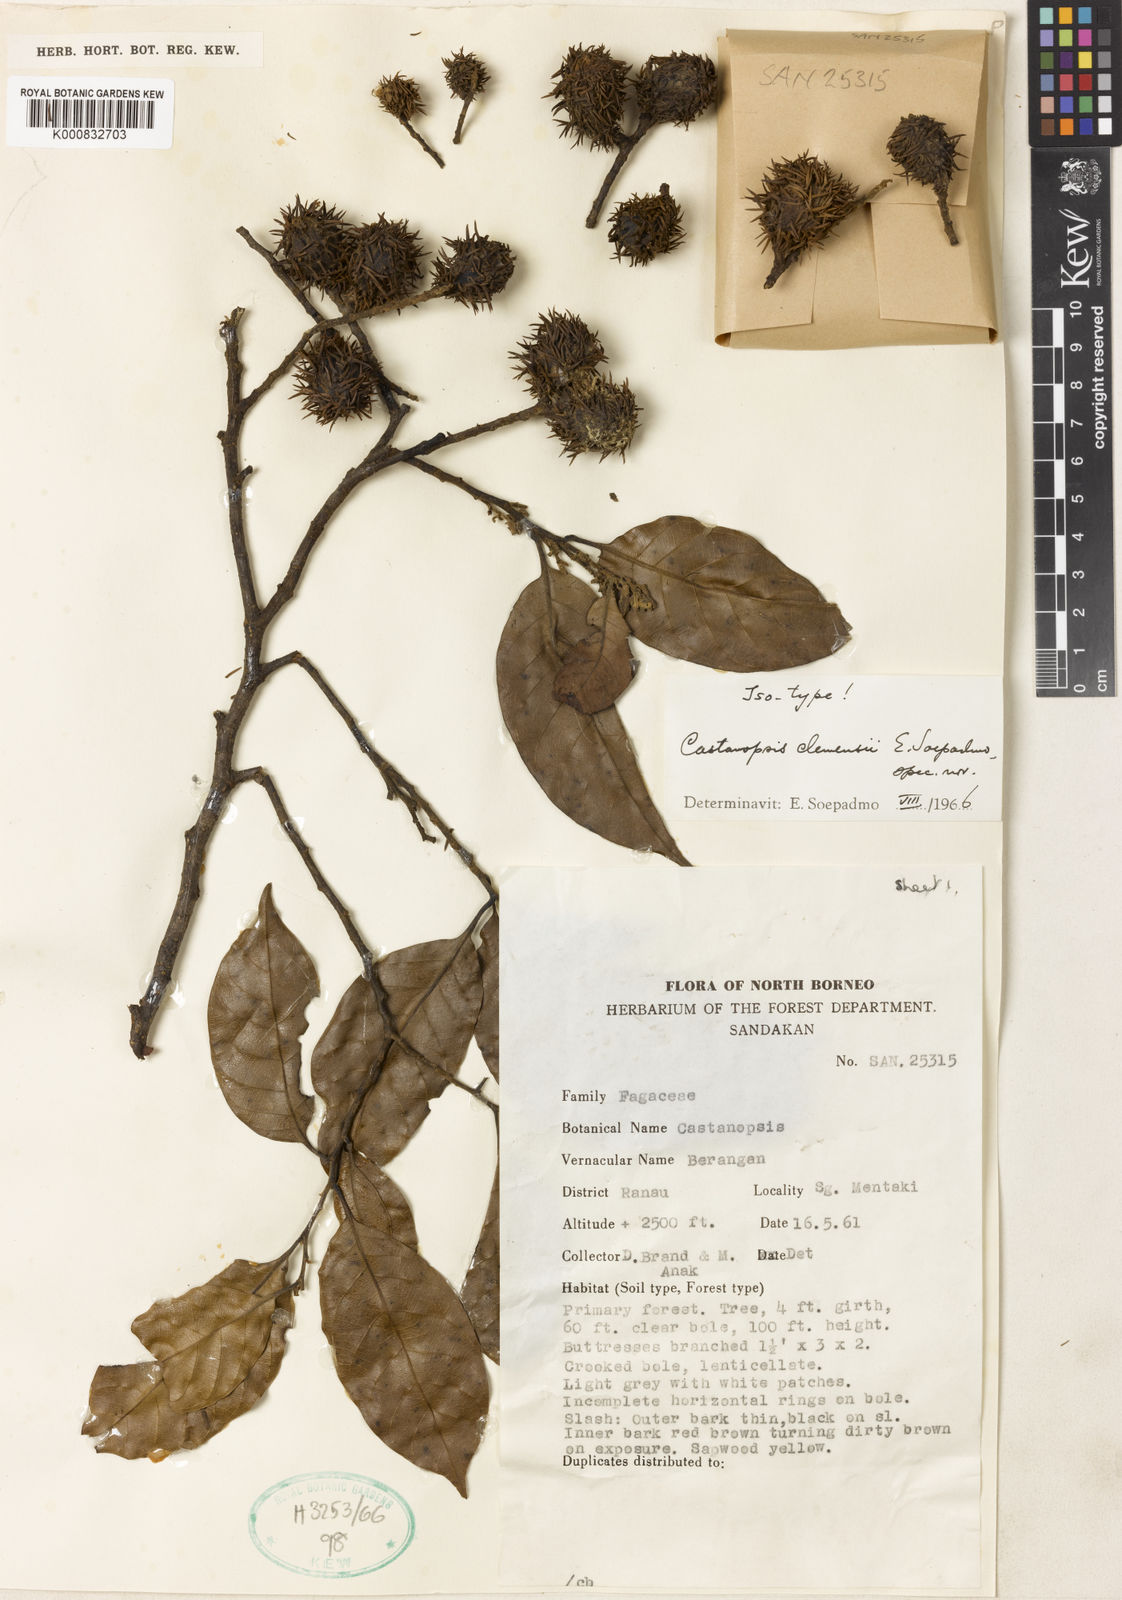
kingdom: Plantae
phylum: Tracheophyta
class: Magnoliopsida
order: Fagales
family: Fagaceae
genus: Castanopsis
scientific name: Castanopsis clemensii
